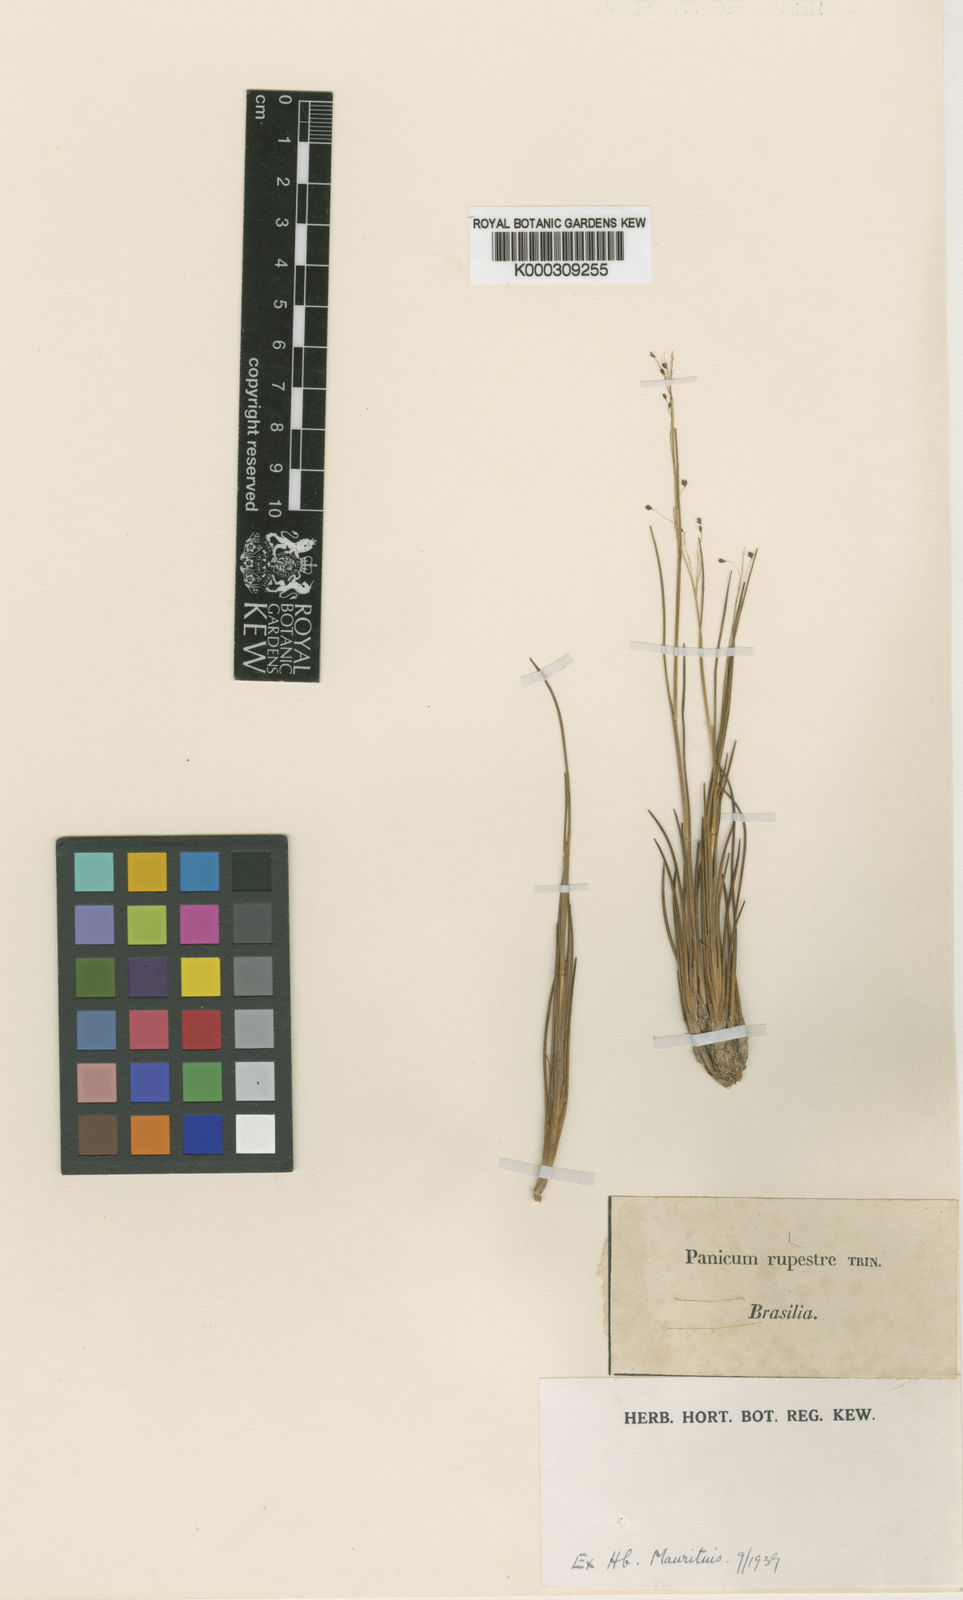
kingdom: Plantae
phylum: Tracheophyta
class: Liliopsida
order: Poales
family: Poaceae
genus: Panicum
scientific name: Panicum rupestre
